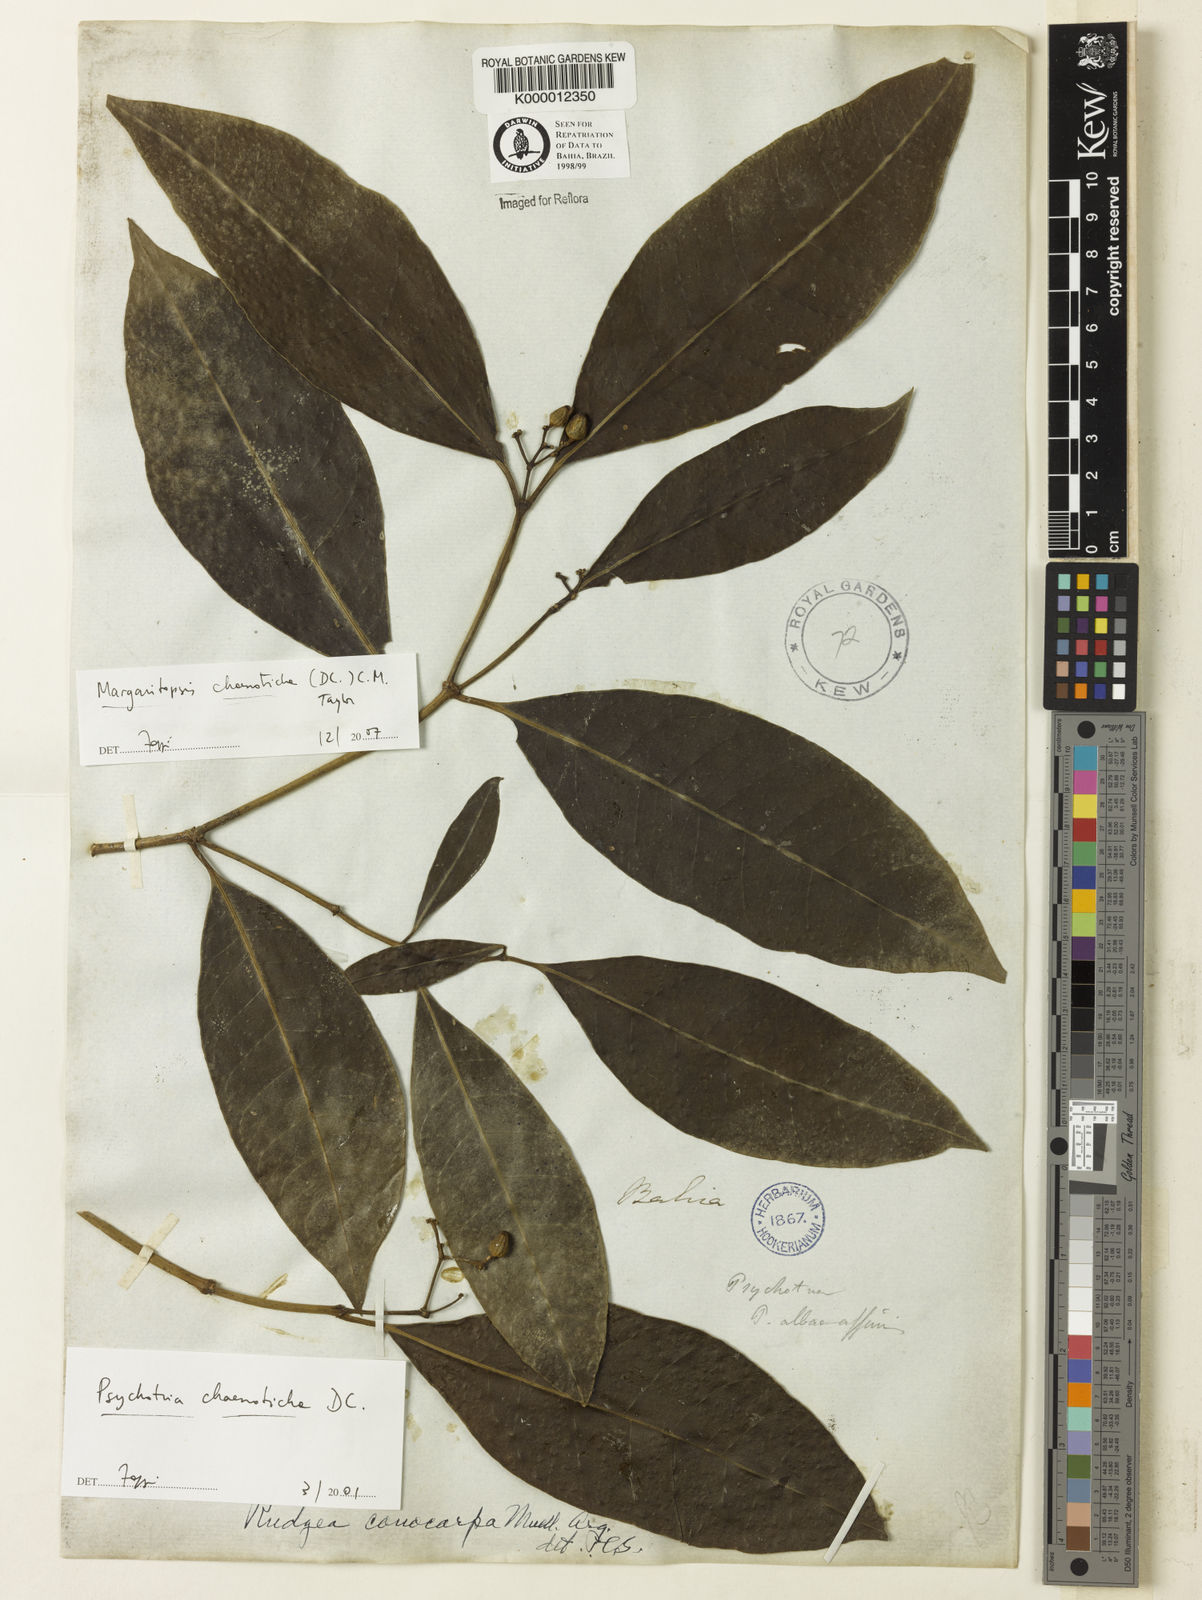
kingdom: Plantae
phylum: Tracheophyta
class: Magnoliopsida
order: Gentianales
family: Rubiaceae
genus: Eumachia
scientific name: Eumachia chaenotricha
